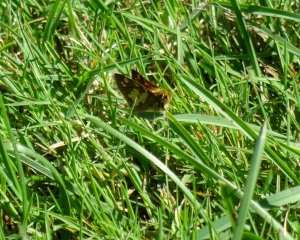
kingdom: Animalia
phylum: Arthropoda
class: Insecta
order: Lepidoptera
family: Hesperiidae
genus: Polites
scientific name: Polites coras
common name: Peck's Skipper
